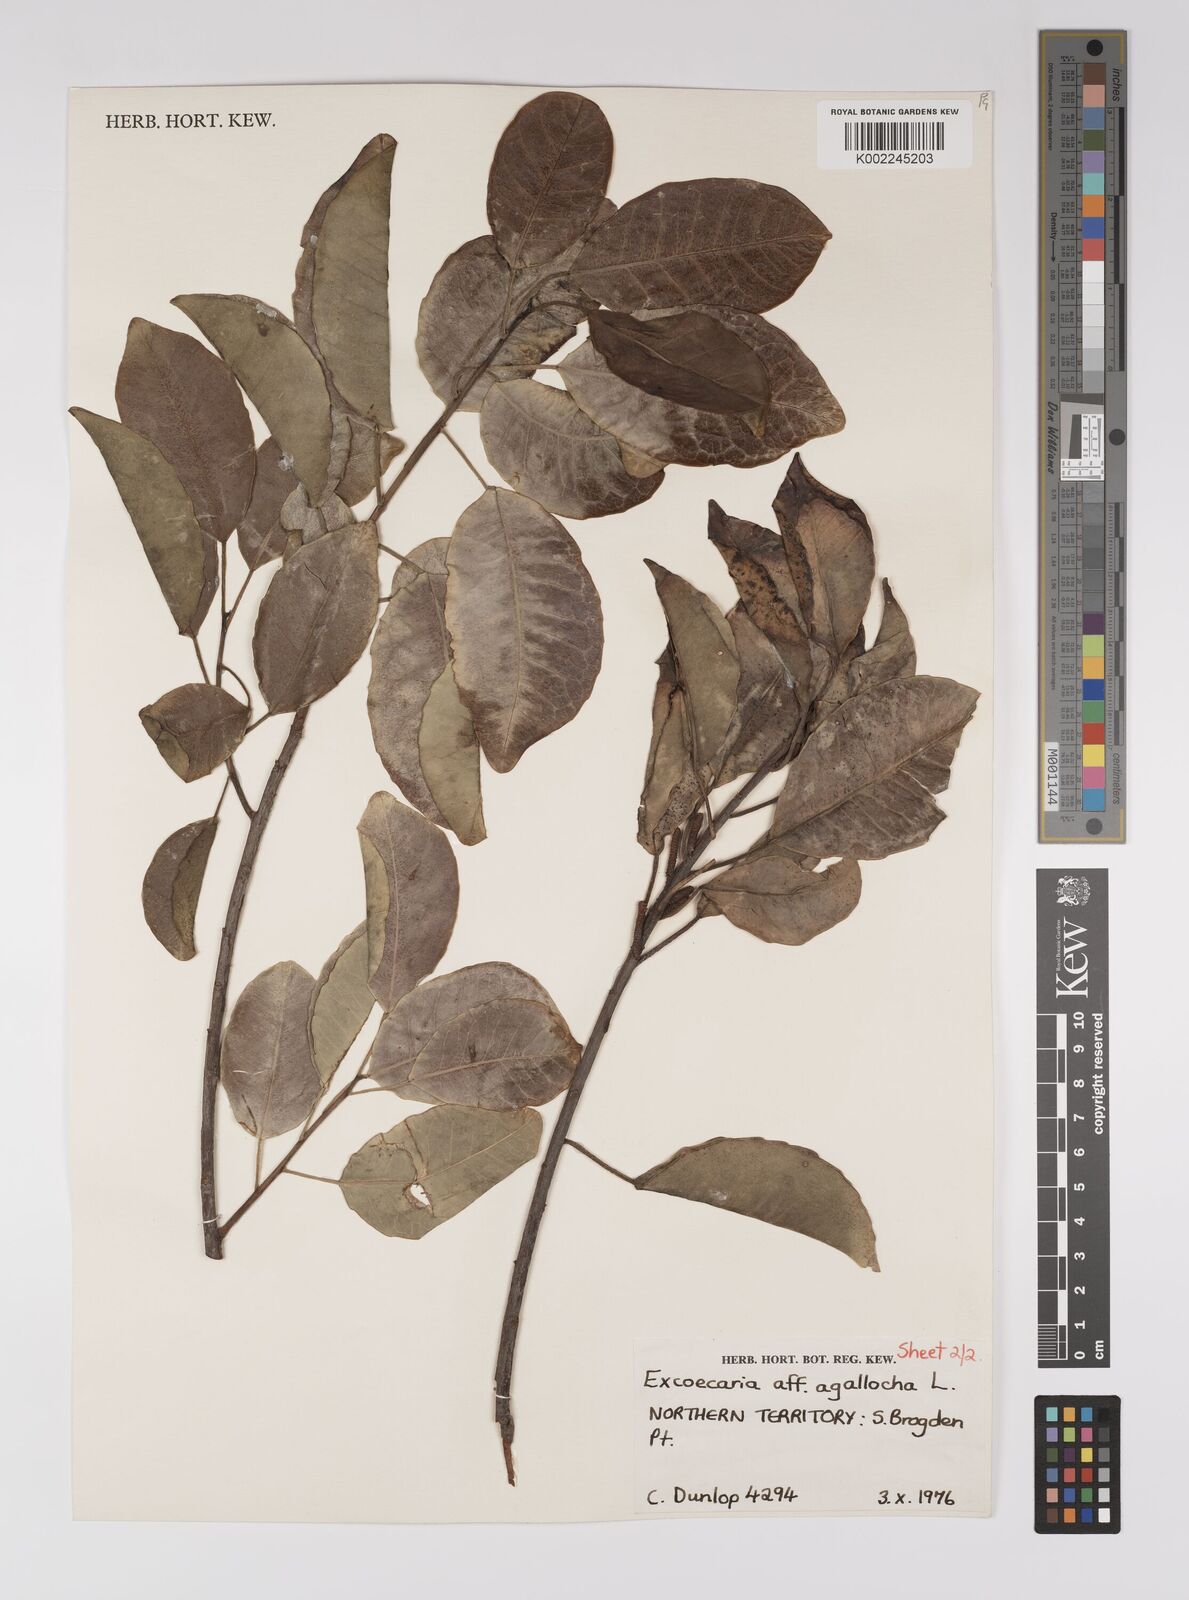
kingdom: Plantae
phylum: Tracheophyta
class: Magnoliopsida
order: Malpighiales
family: Euphorbiaceae
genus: Excoecaria
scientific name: Excoecaria agallocha
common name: River poisontree
